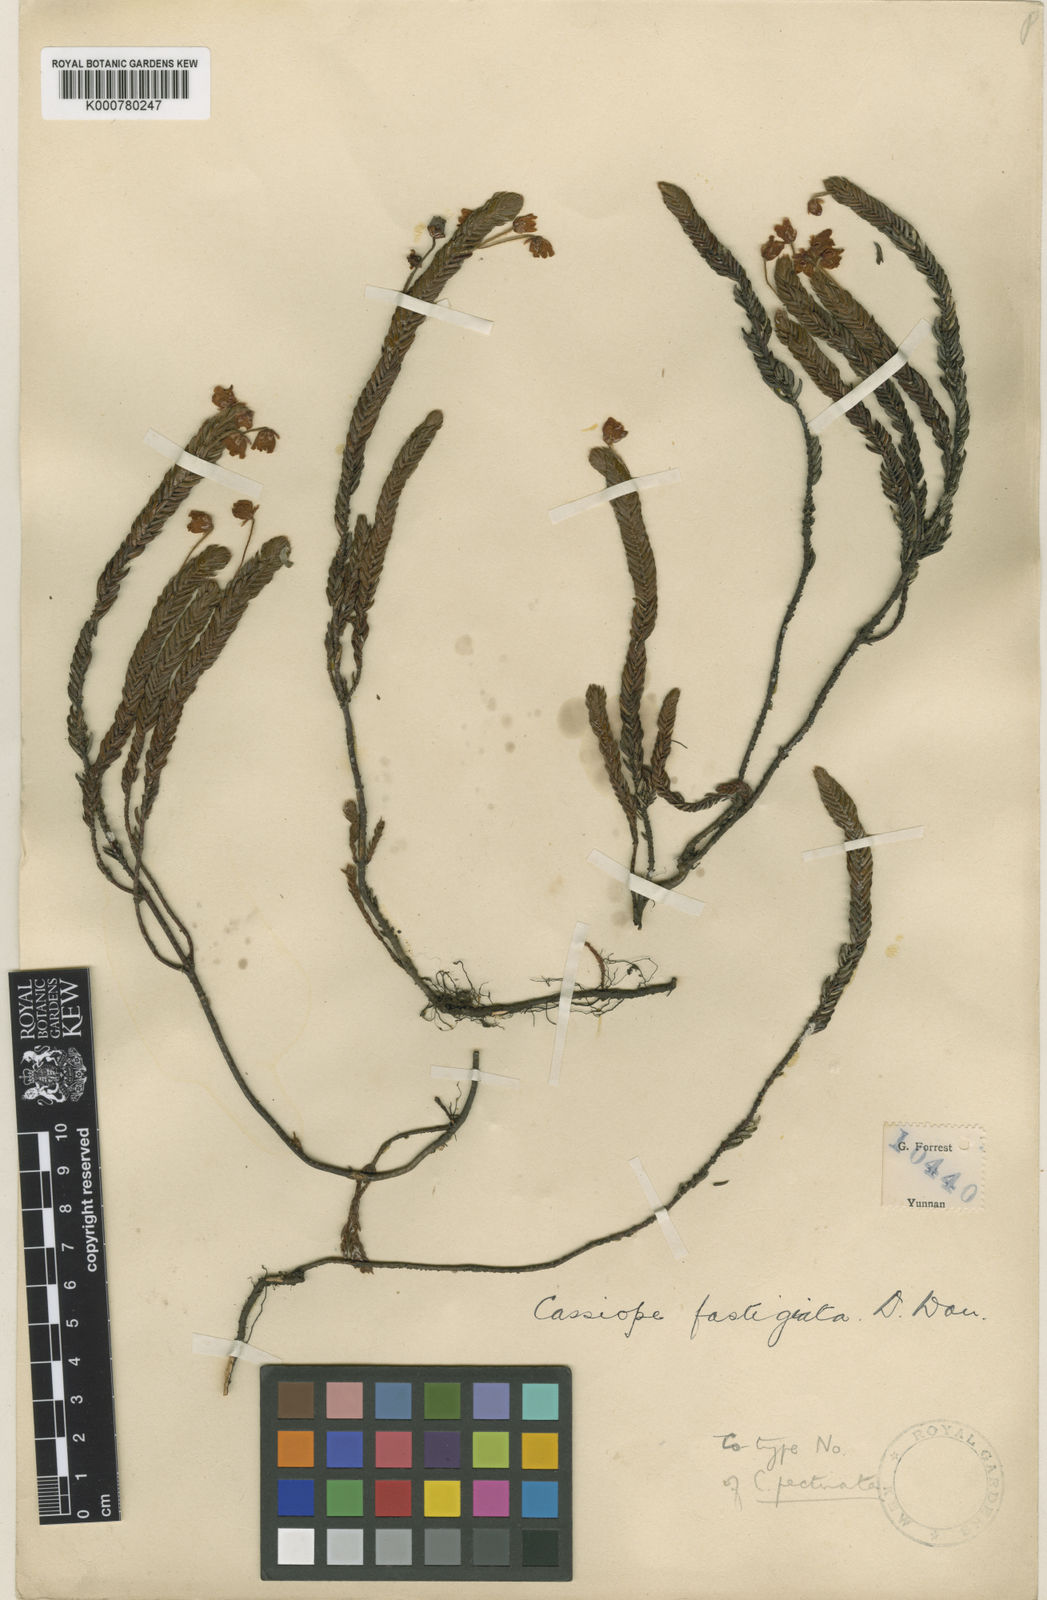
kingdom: Plantae
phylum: Tracheophyta
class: Magnoliopsida
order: Ericales
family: Ericaceae
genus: Cassiope
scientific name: Cassiope pectinata
